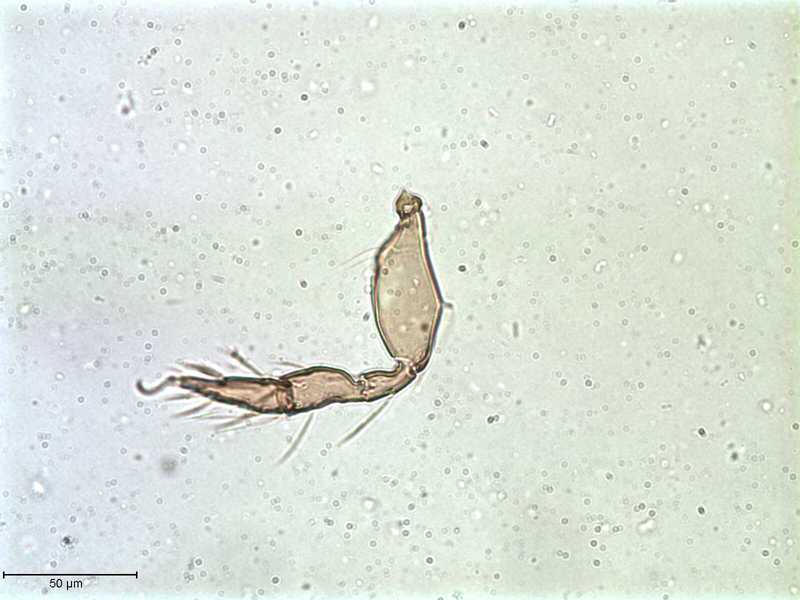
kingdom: Animalia
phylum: Arthropoda
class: Arachnida
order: Sarcoptiformes
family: Galumnidae
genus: Allogalumna
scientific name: Allogalumna exigua
